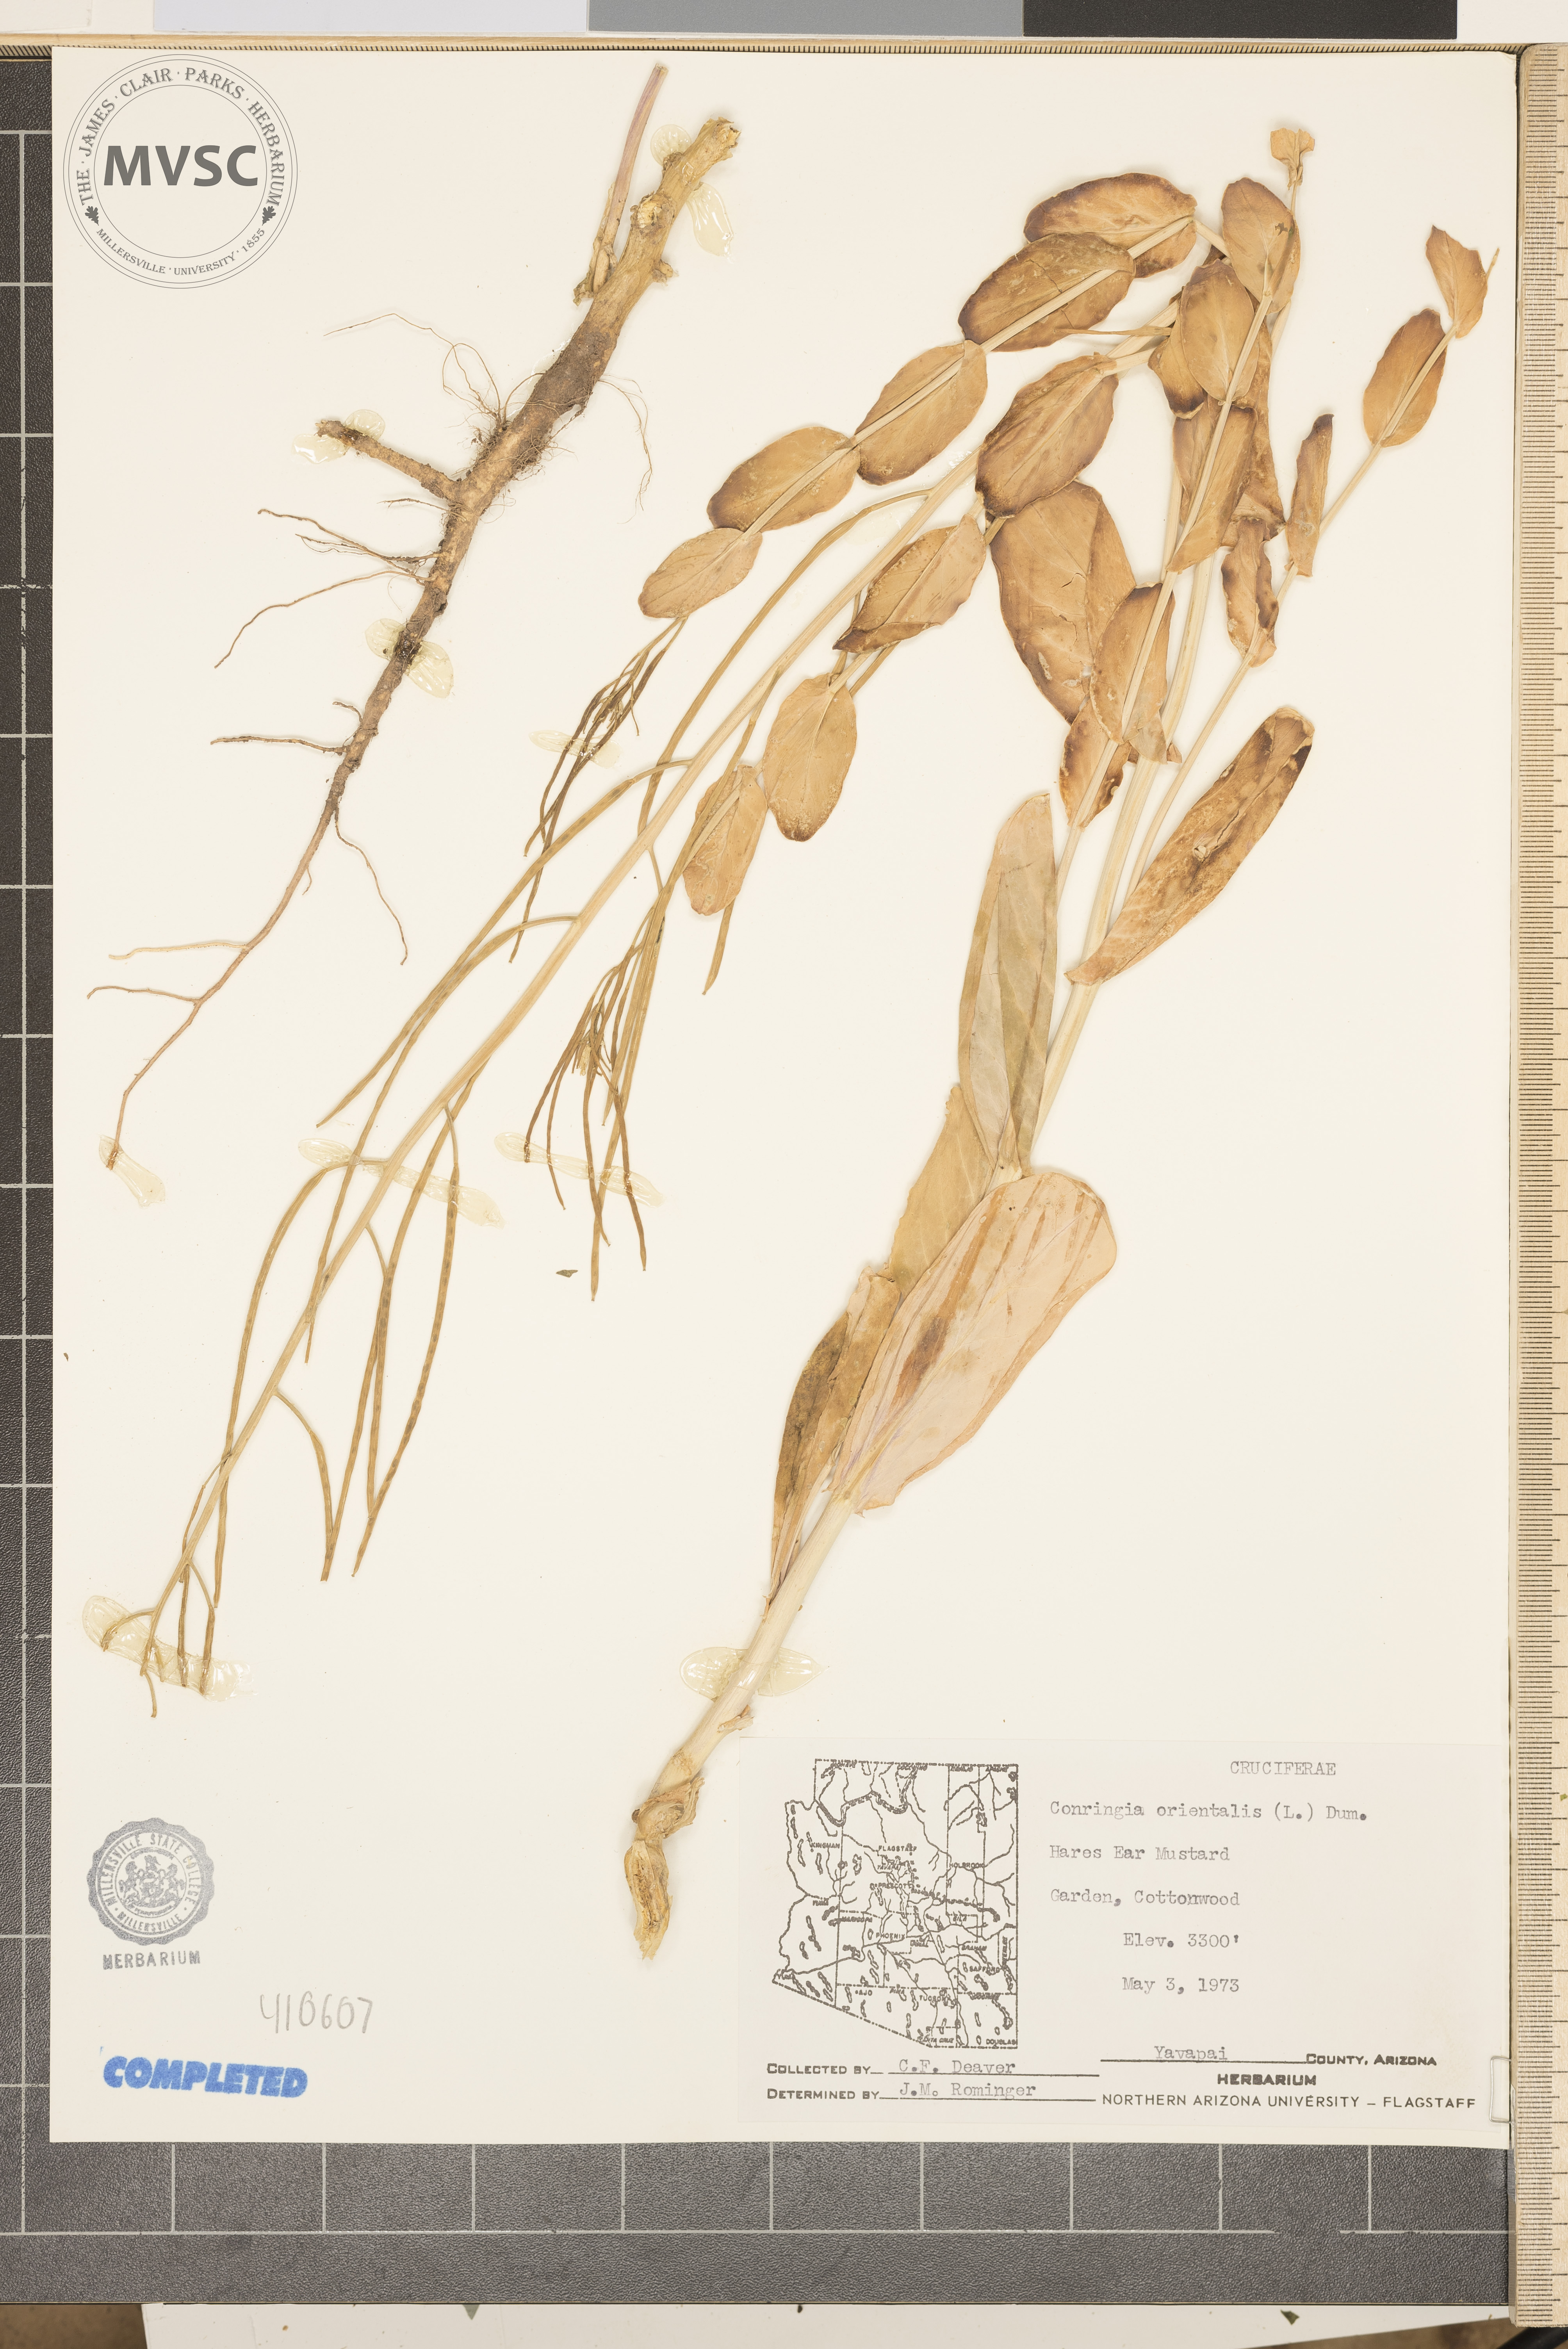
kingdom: Plantae
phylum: Tracheophyta
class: Magnoliopsida
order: Brassicales
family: Brassicaceae
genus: Conringia
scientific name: Conringia orientalis
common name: hare's ear mustard
